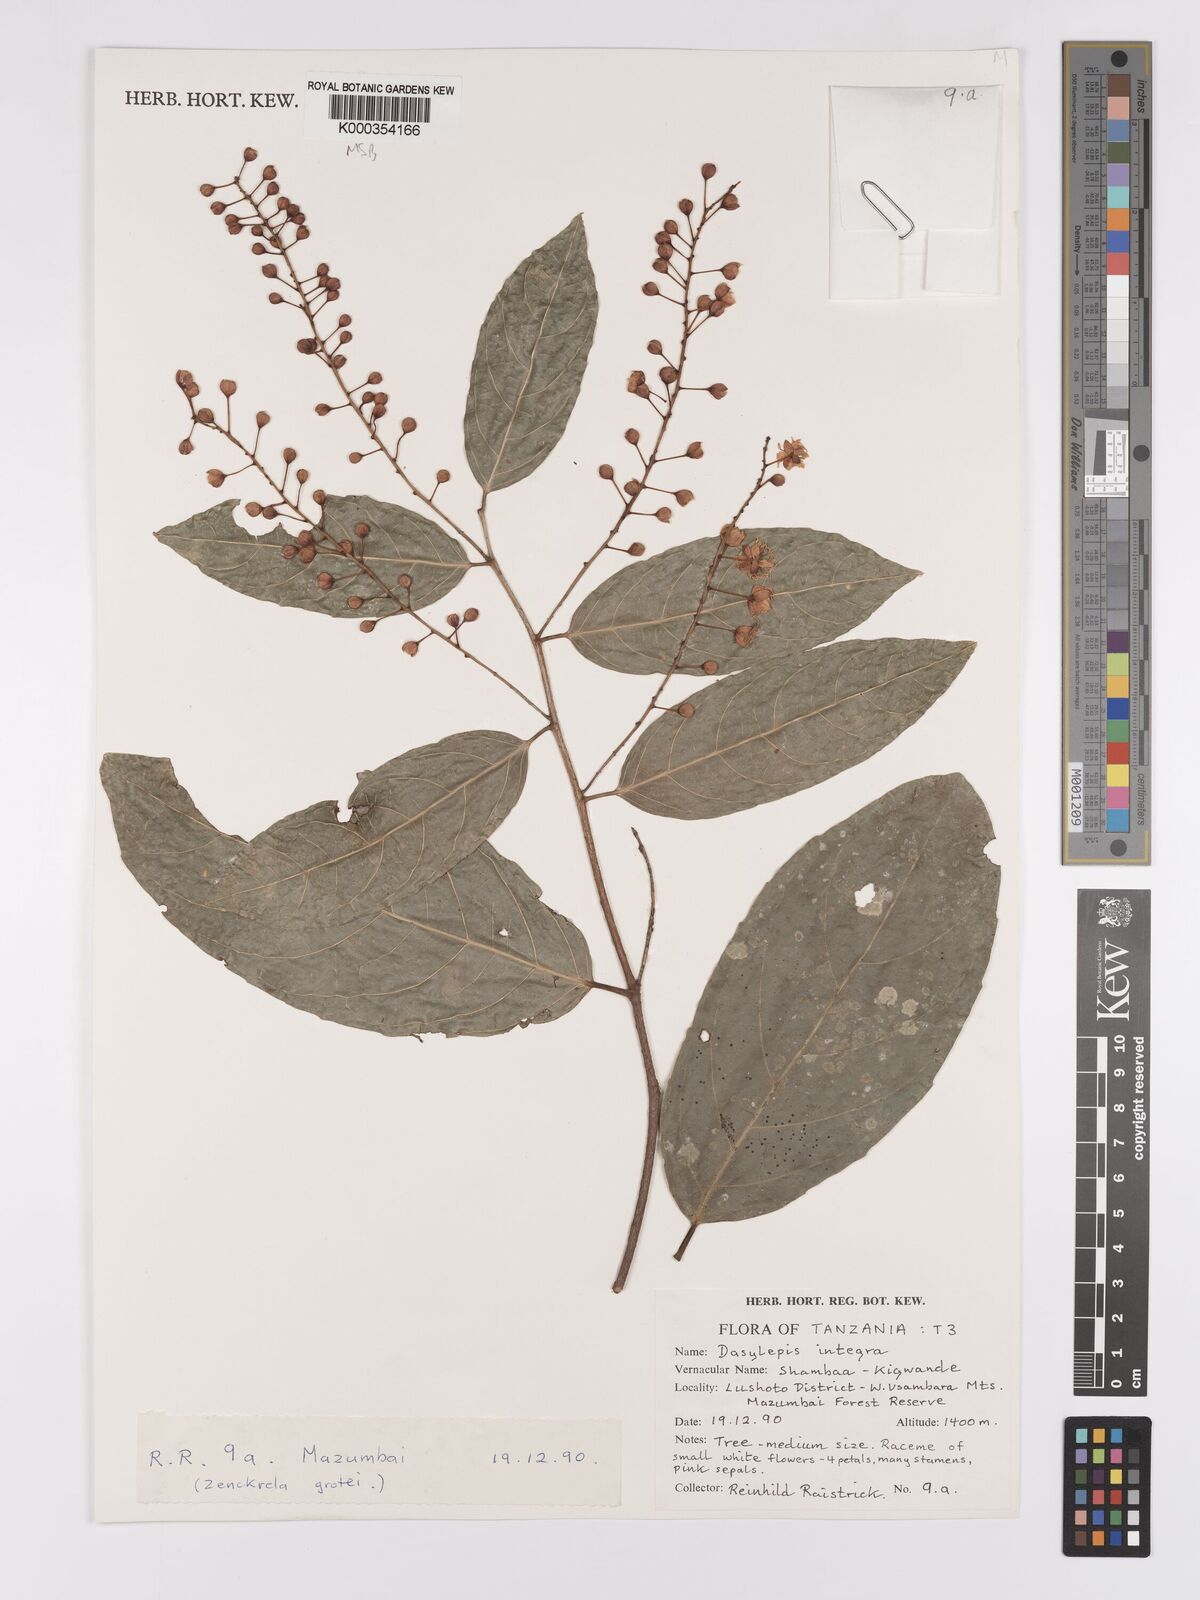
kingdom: Plantae
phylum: Tracheophyta
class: Magnoliopsida
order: Malpighiales
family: Achariaceae
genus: Dasylepis
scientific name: Dasylepis integra
